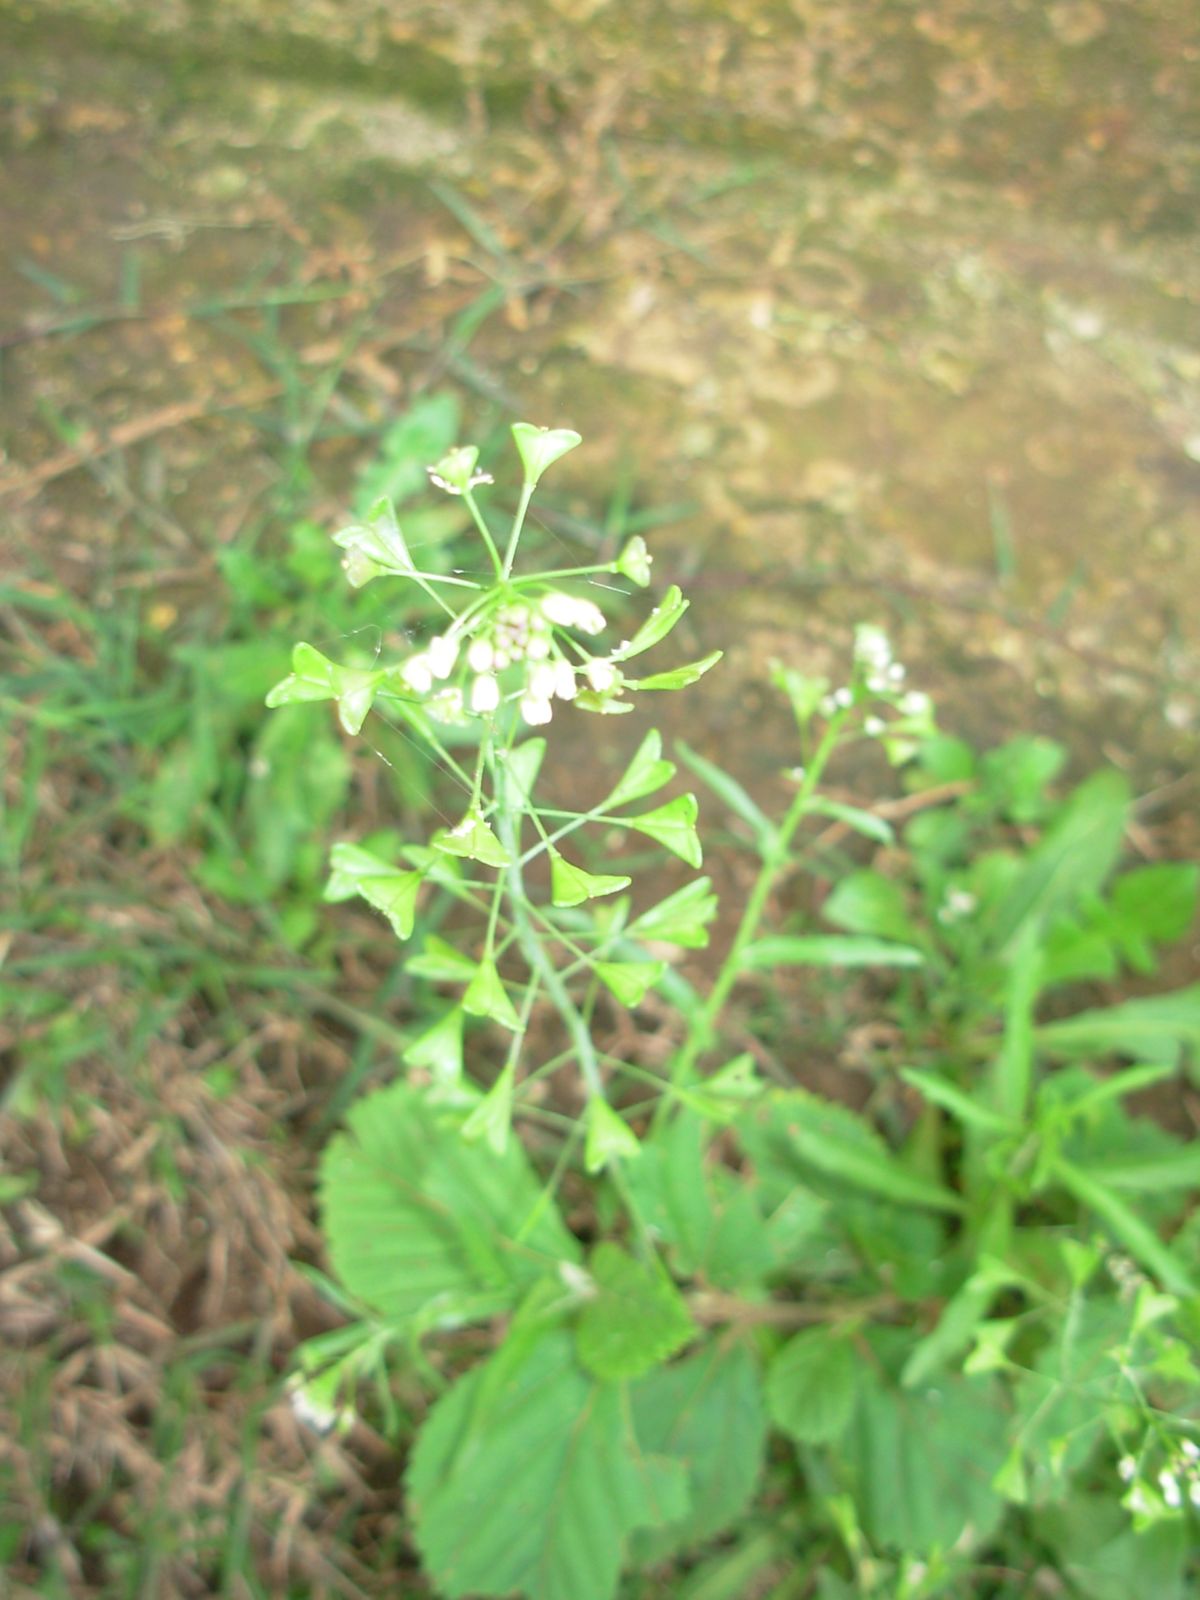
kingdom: Plantae
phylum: Tracheophyta
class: Magnoliopsida
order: Brassicales
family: Brassicaceae
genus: Capsella
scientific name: Capsella bursa-pastoris
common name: Shepherd's purse
